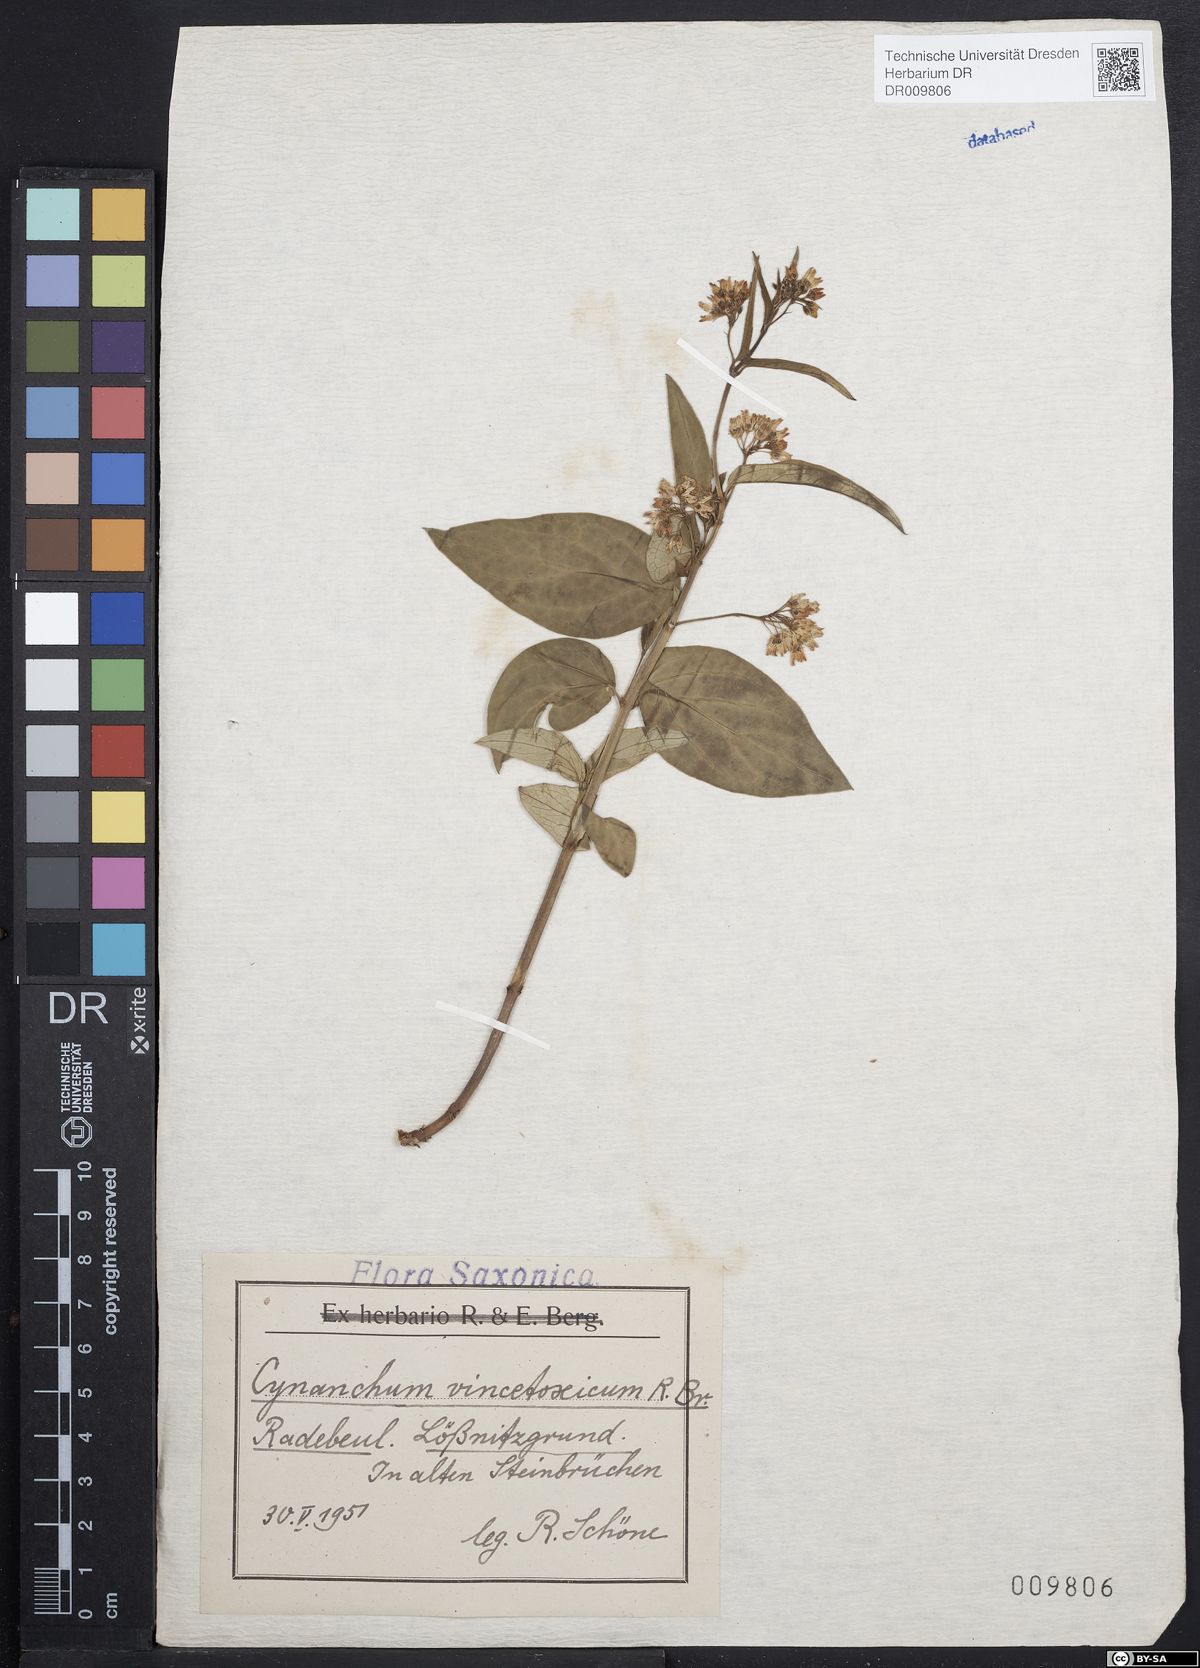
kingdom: Plantae
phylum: Tracheophyta
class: Magnoliopsida
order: Gentianales
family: Apocynaceae
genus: Vincetoxicum
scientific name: Vincetoxicum hirundinaria
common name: White swallowwort
